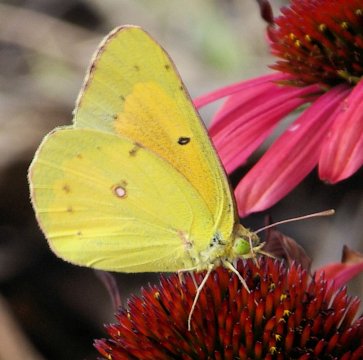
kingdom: Animalia
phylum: Arthropoda
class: Insecta
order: Lepidoptera
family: Pieridae
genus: Colias
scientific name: Colias eurytheme
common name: Orange Sulphur
